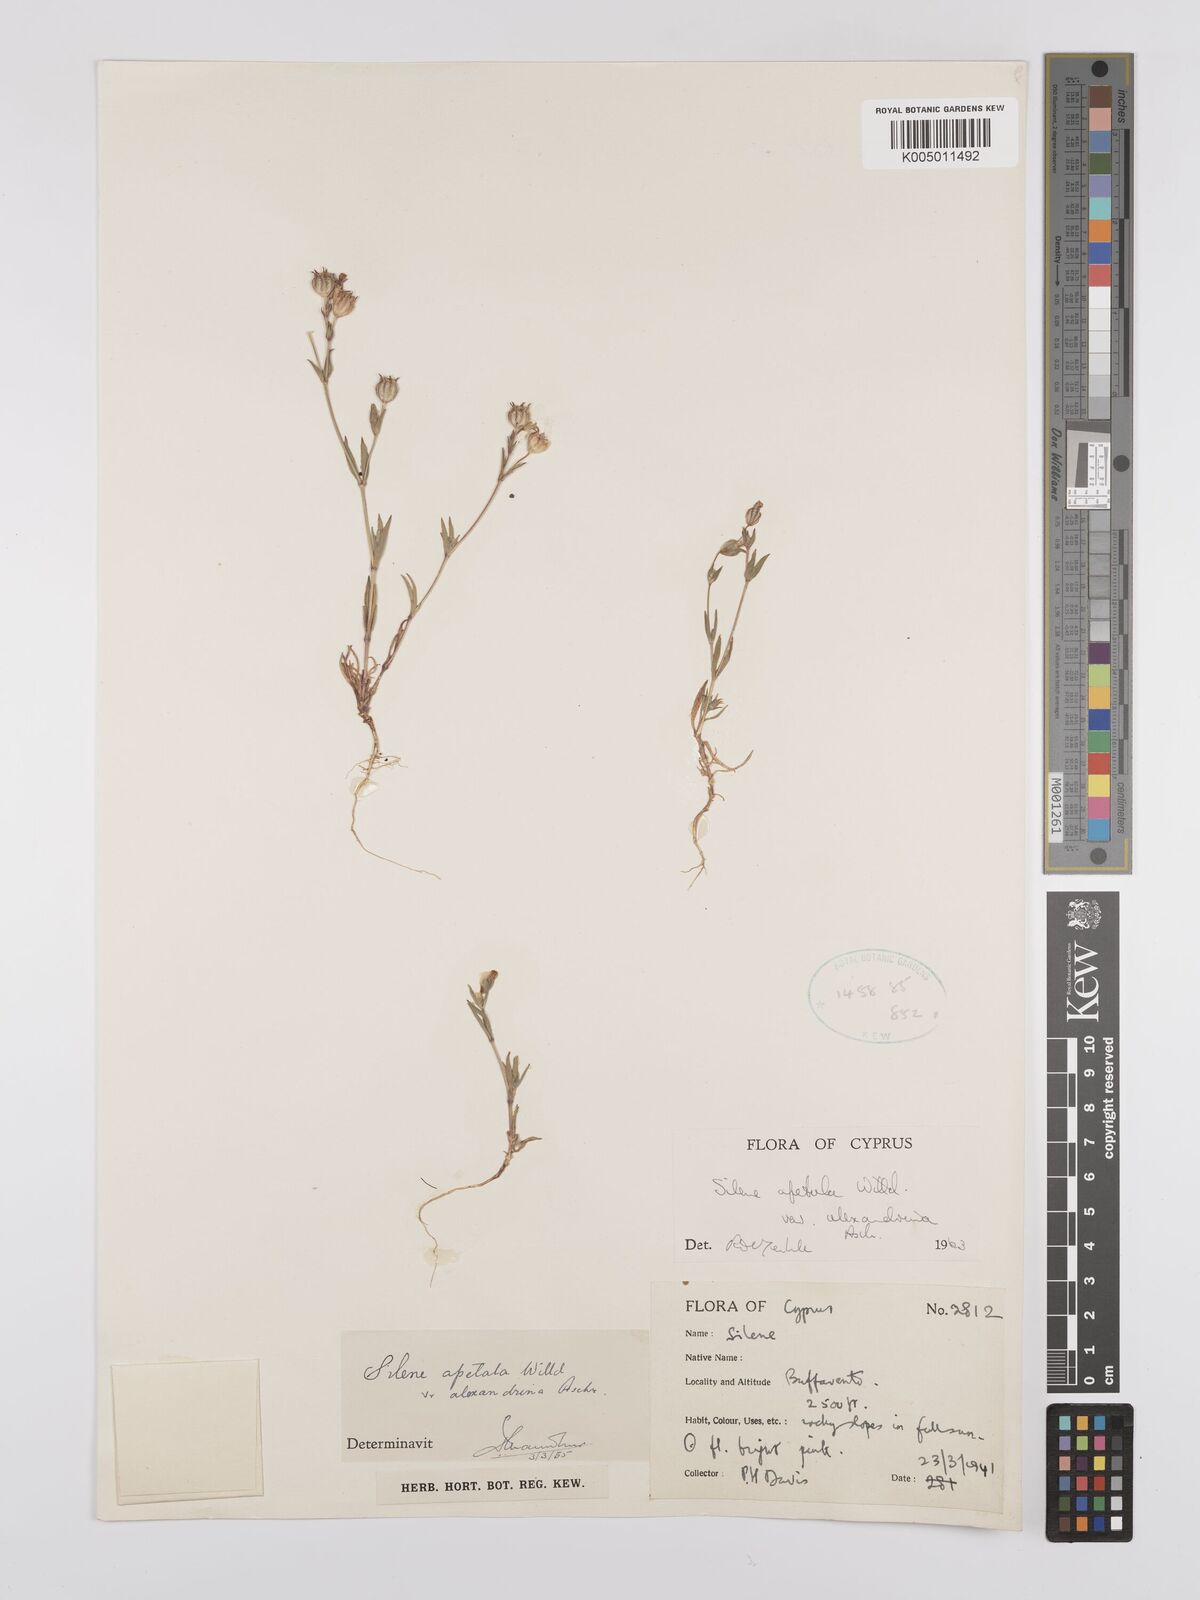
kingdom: Plantae
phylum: Tracheophyta
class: Magnoliopsida
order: Caryophyllales
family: Caryophyllaceae
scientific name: Caryophyllaceae
